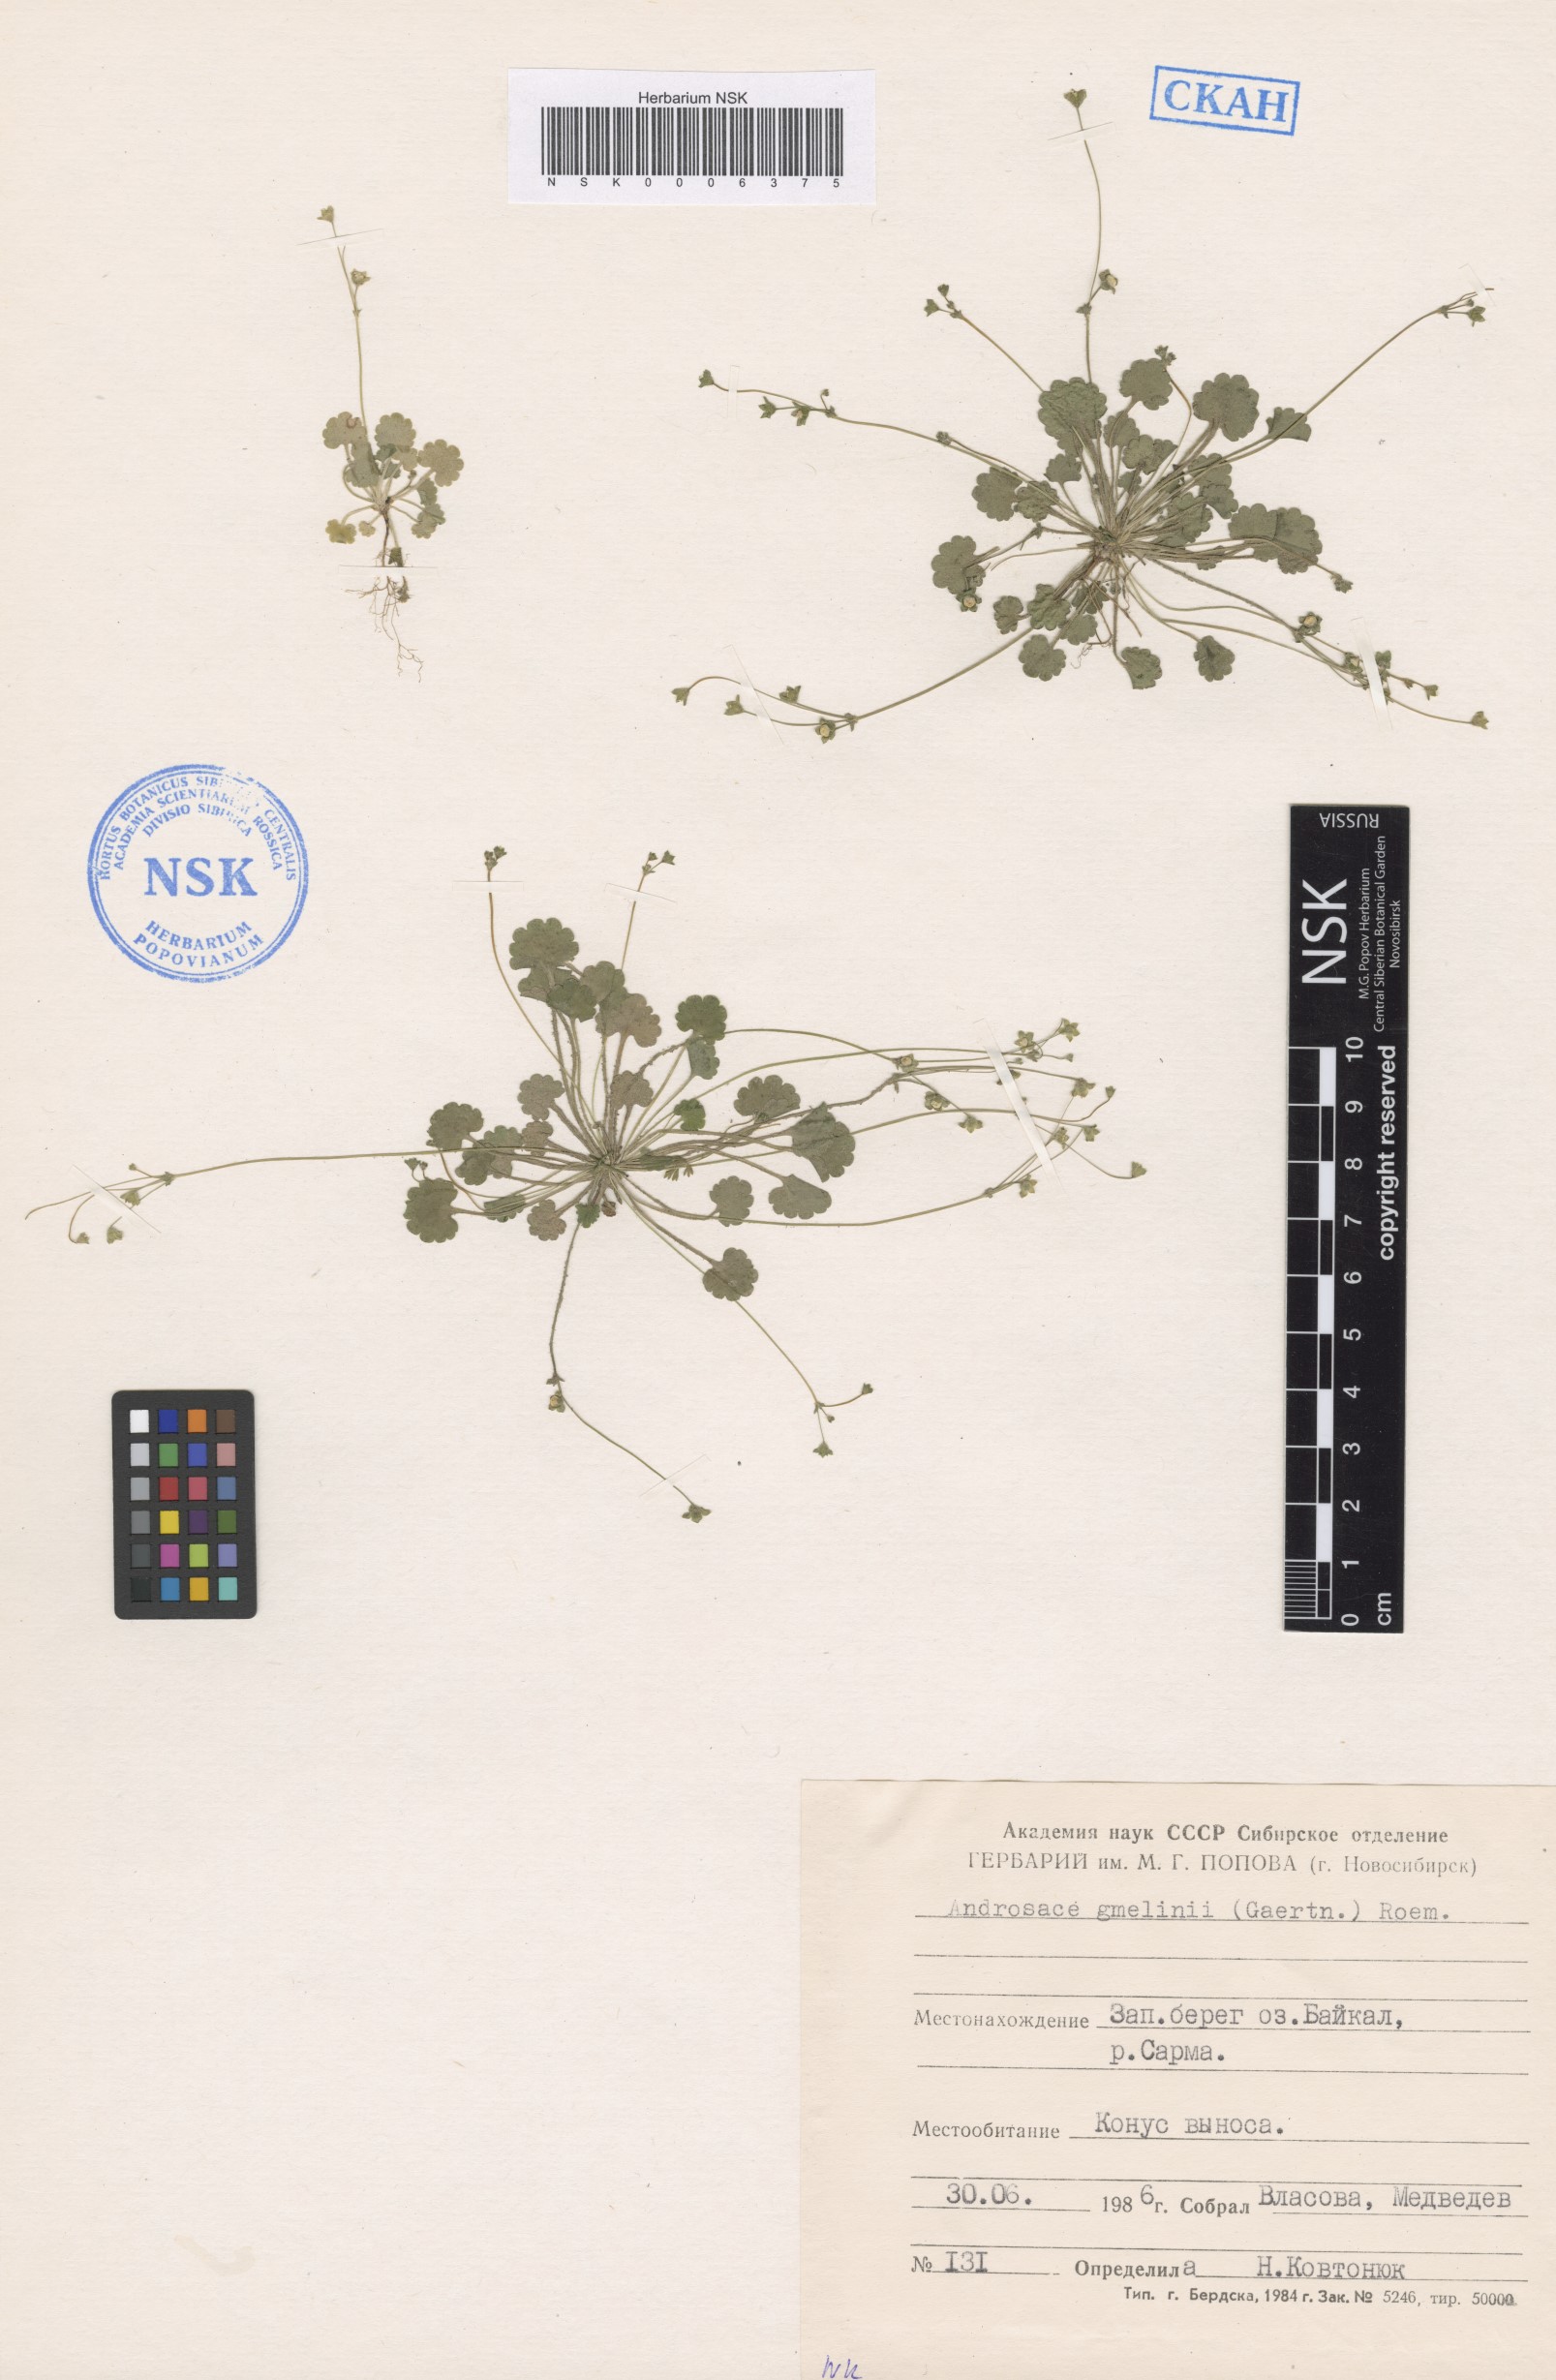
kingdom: Plantae
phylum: Tracheophyta
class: Magnoliopsida
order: Ericales
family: Primulaceae
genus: Androsace
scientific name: Androsace gmelinii
